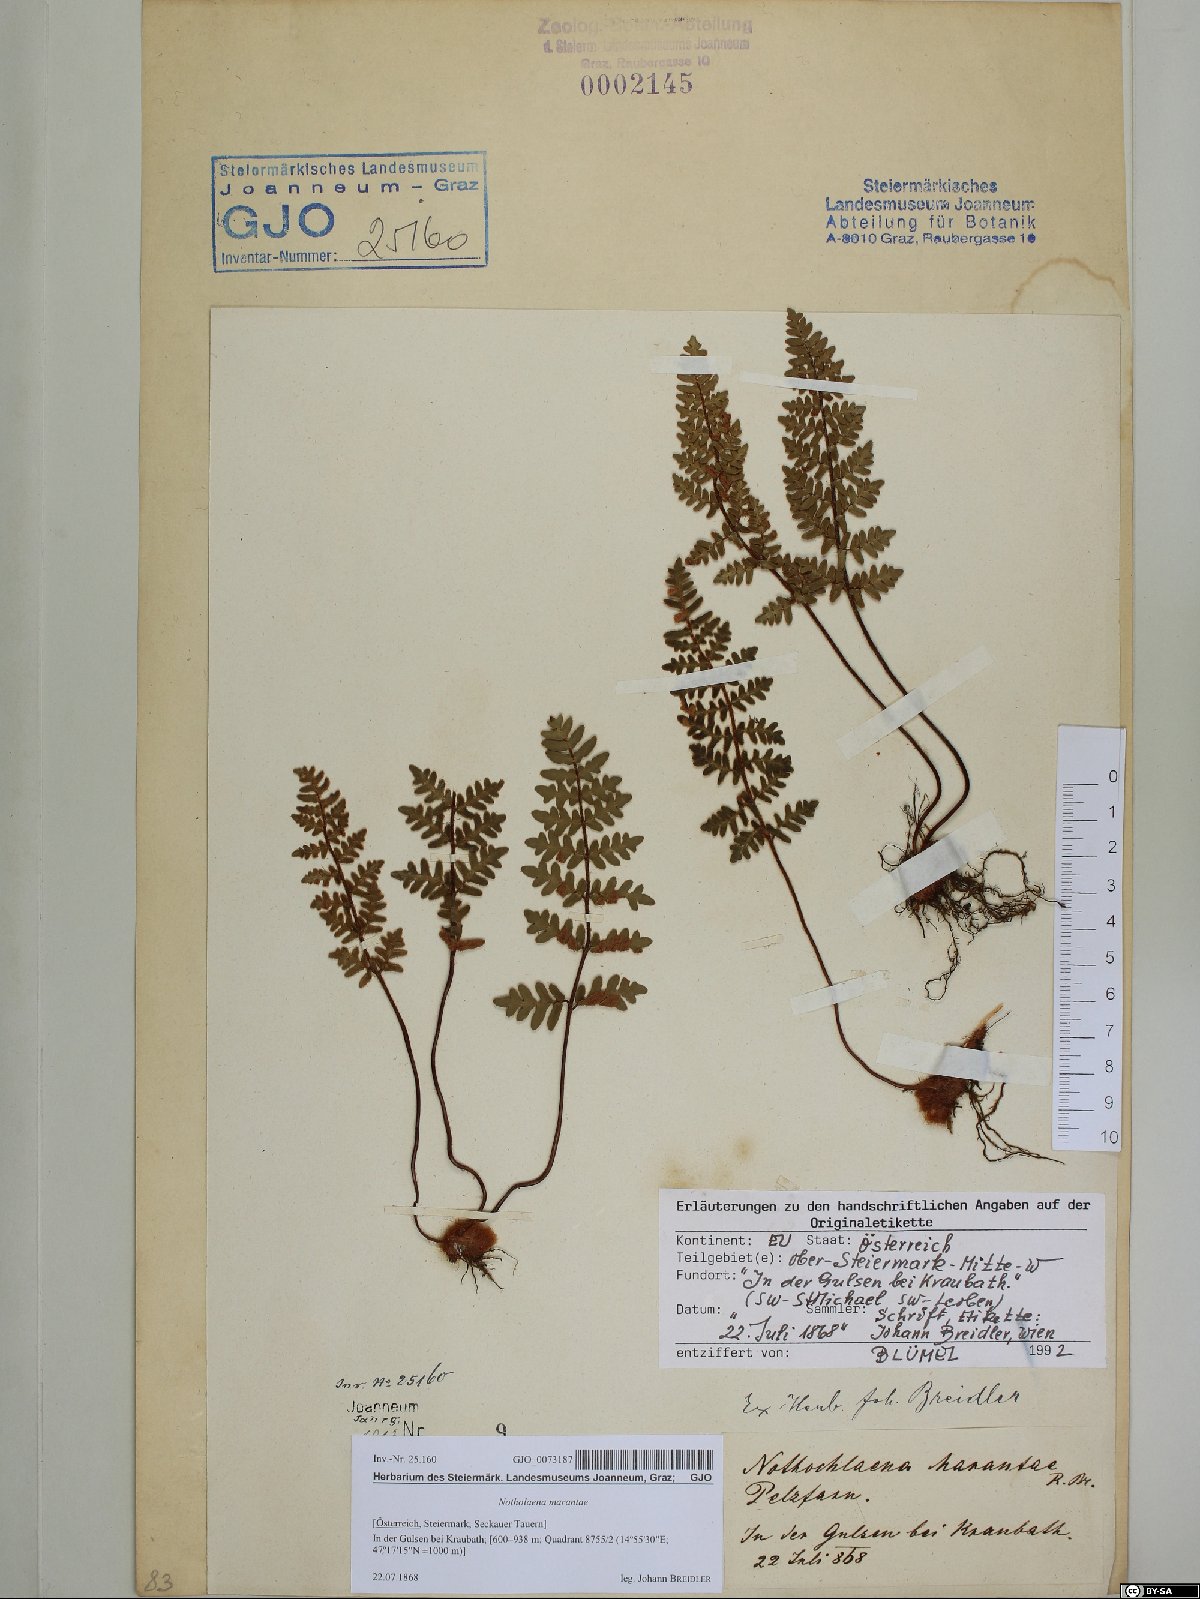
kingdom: Plantae
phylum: Tracheophyta
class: Polypodiopsida
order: Polypodiales
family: Pteridaceae
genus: Paragymnopteris
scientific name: Paragymnopteris marantae
